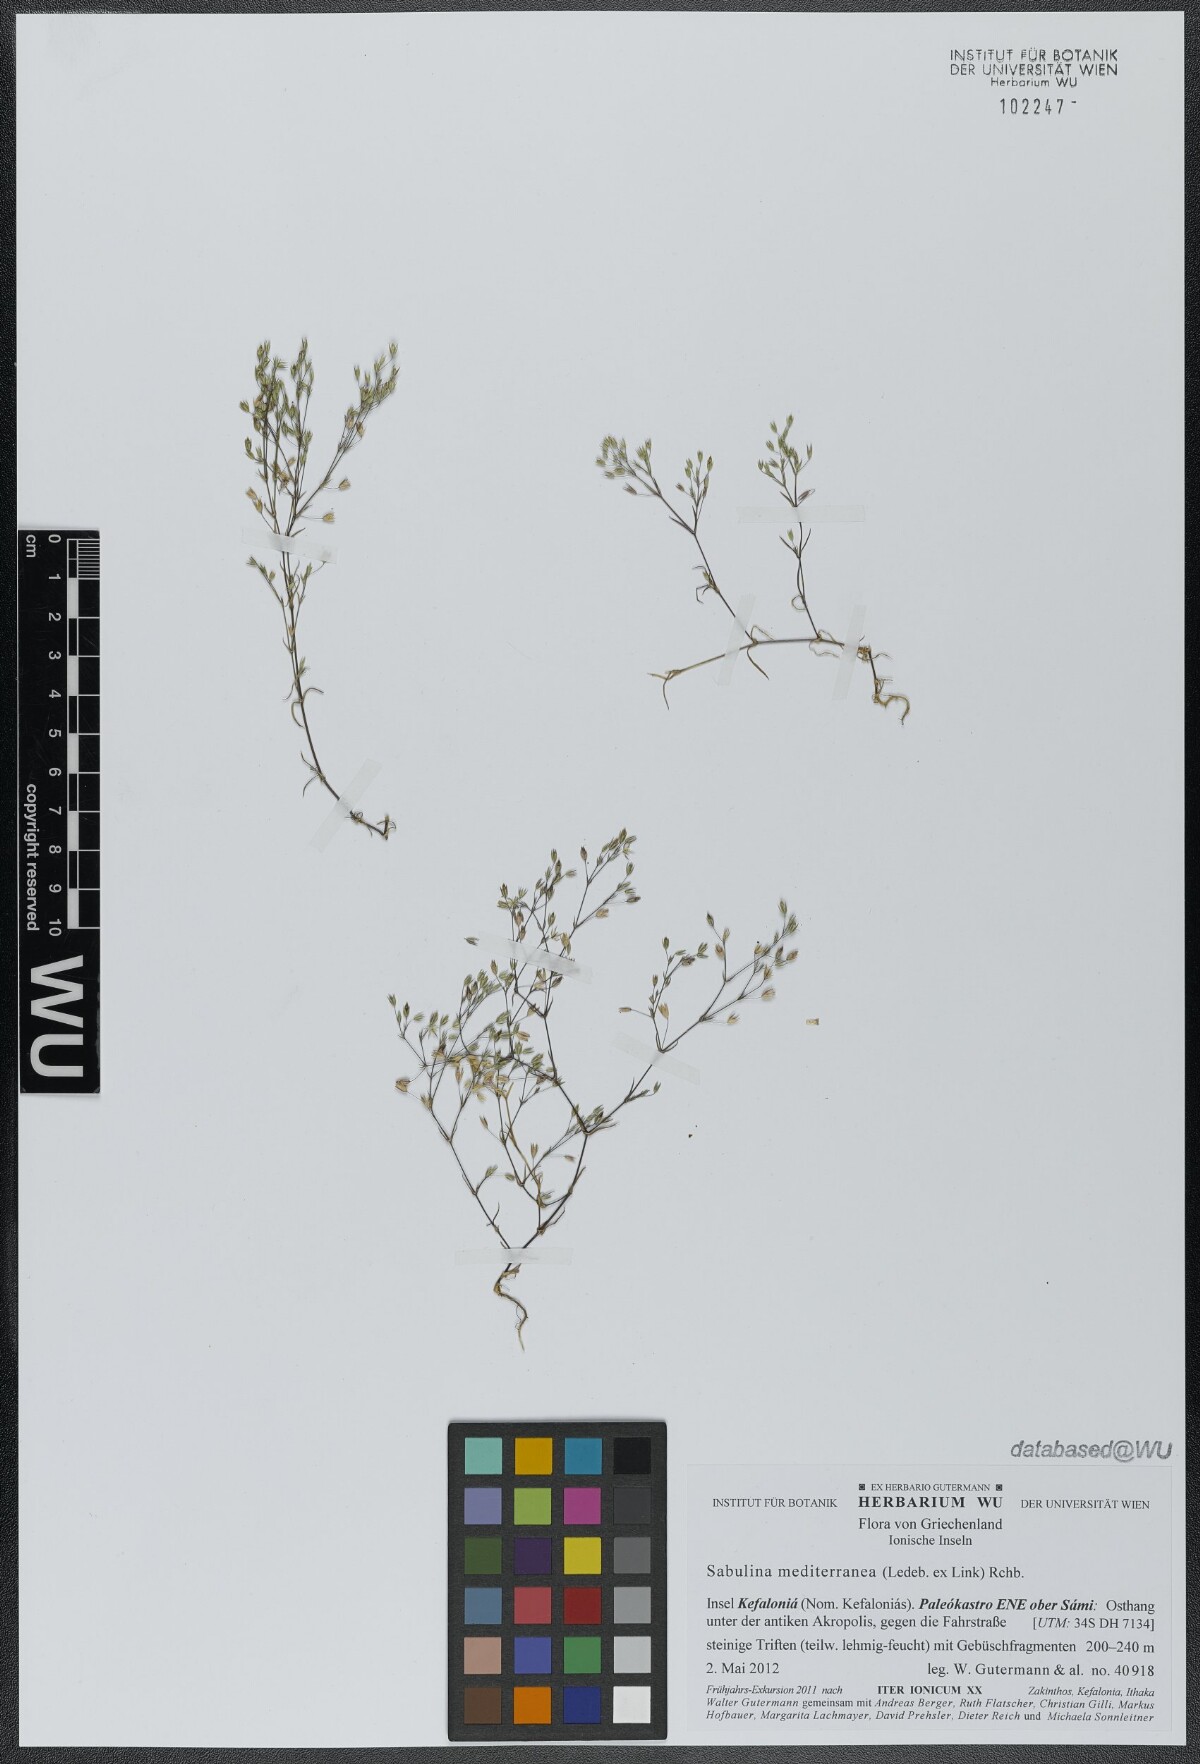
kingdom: Plantae
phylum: Tracheophyta
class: Magnoliopsida
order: Caryophyllales
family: Caryophyllaceae
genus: Sabulina
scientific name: Sabulina tenuifolia
